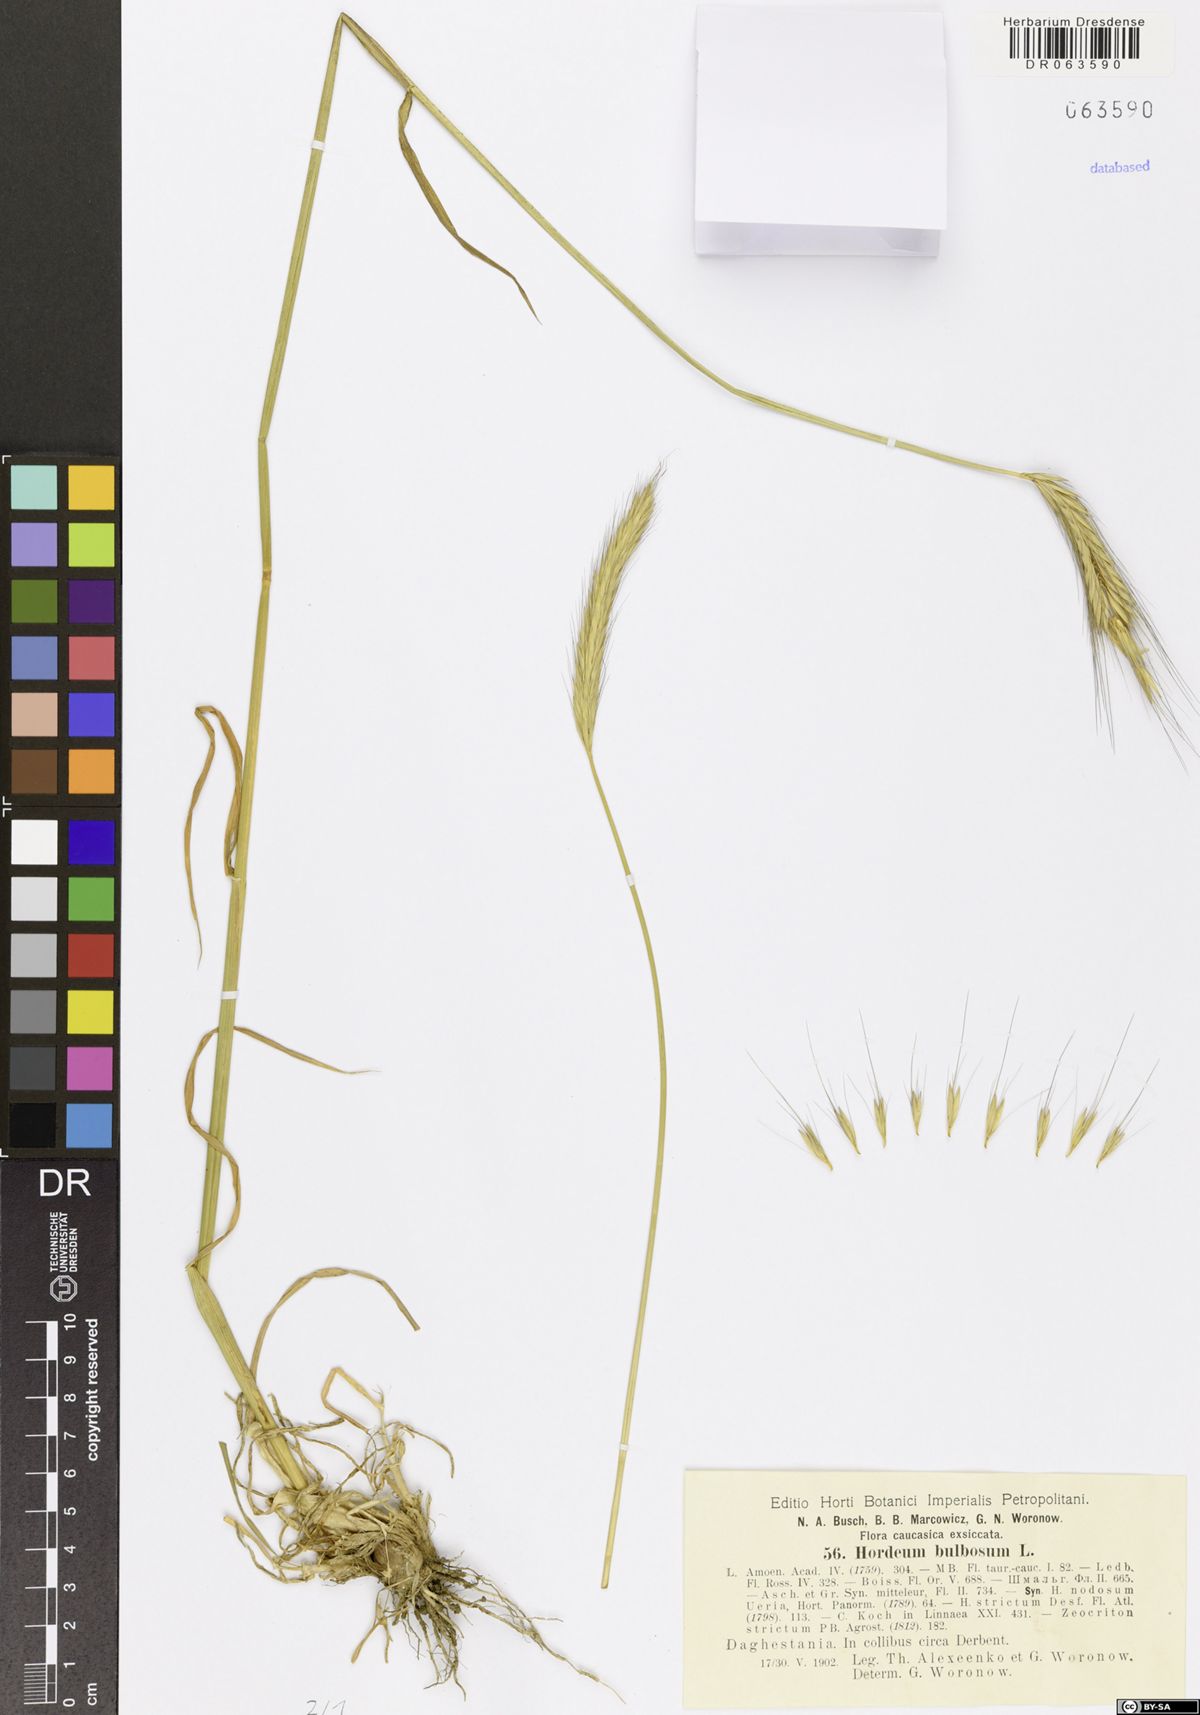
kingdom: Plantae
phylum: Tracheophyta
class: Liliopsida
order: Poales
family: Poaceae
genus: Hordeum
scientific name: Hordeum bulbosum
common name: Bulbous barley
